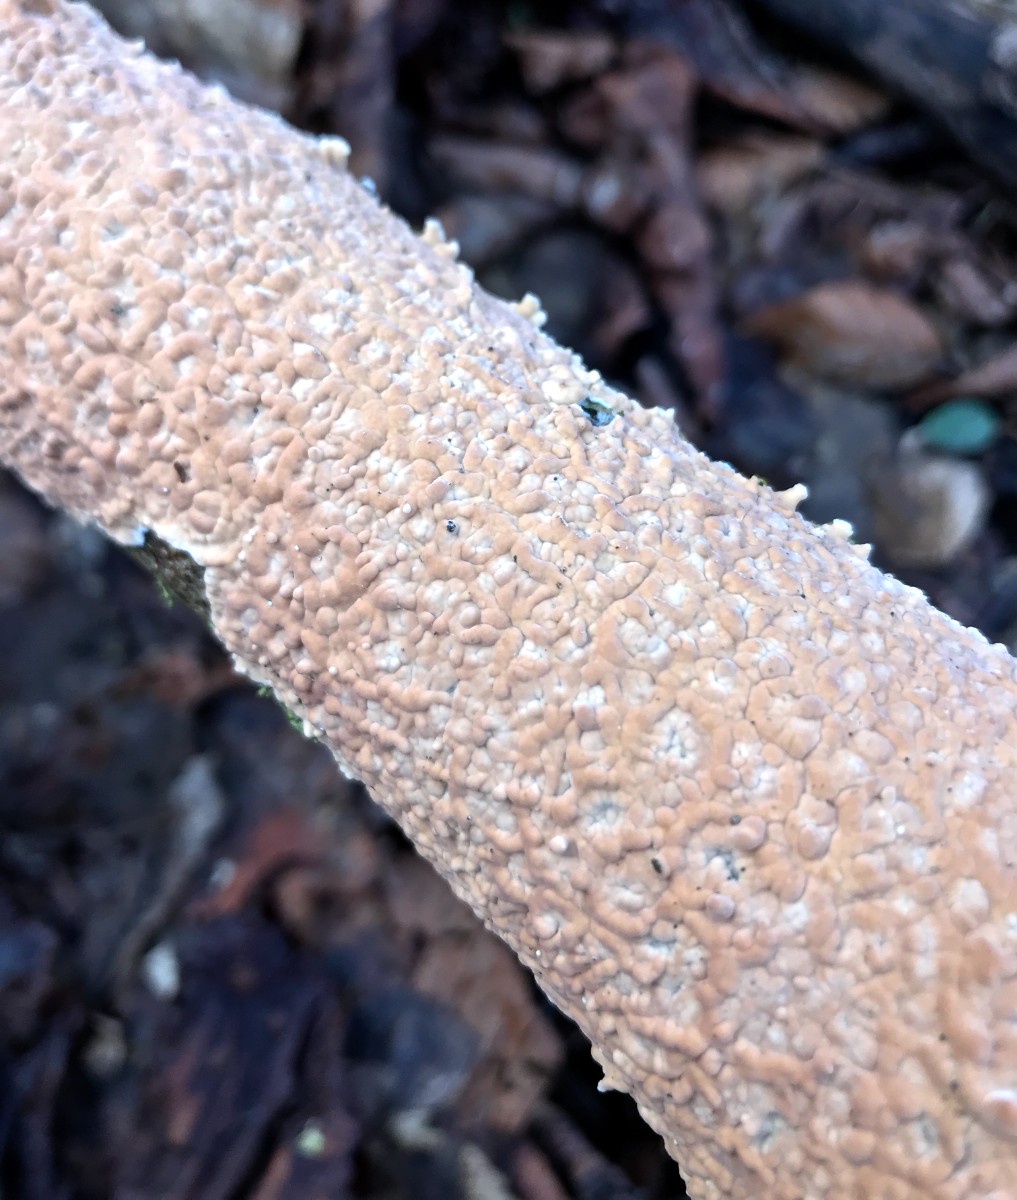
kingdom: Fungi
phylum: Basidiomycota
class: Agaricomycetes
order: Agaricales
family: Physalacriaceae
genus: Cylindrobasidium
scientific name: Cylindrobasidium evolvens
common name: sprækkehinde
